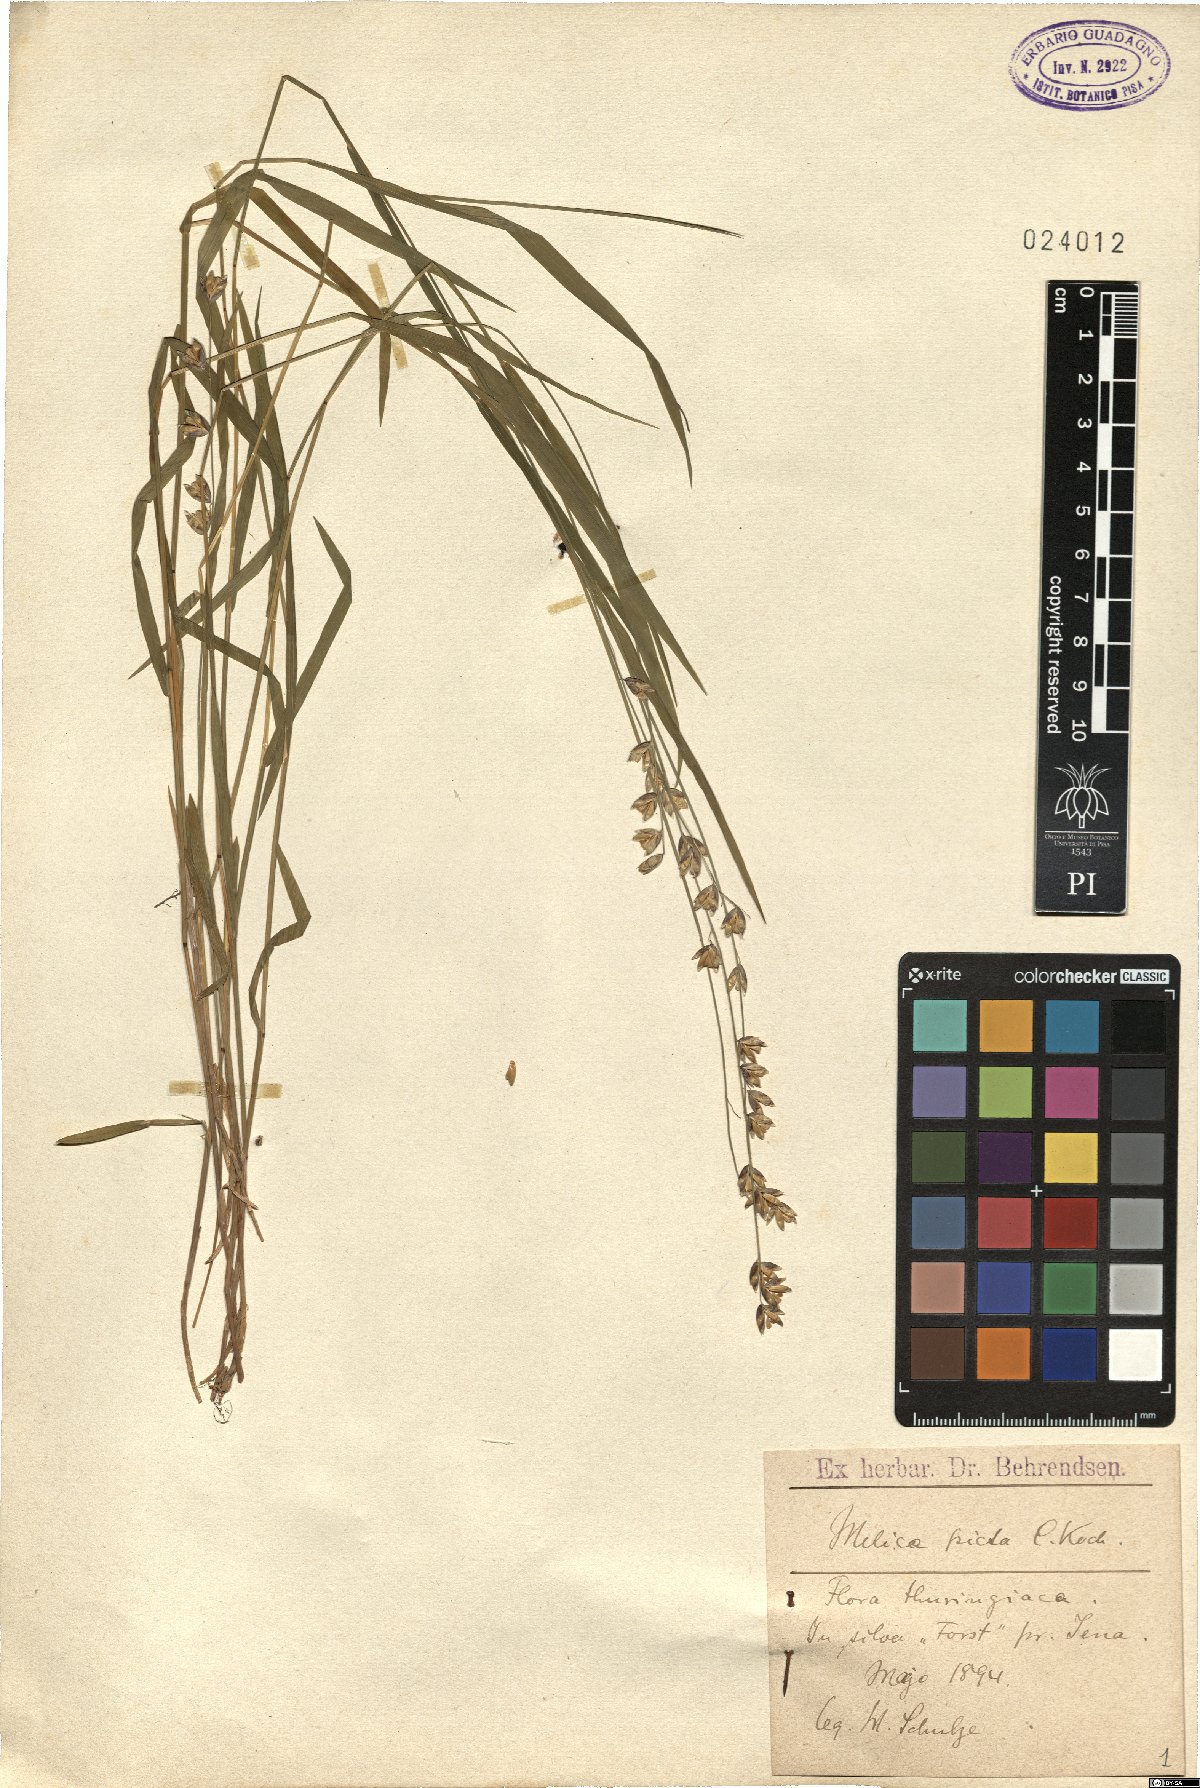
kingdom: Plantae
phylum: Tracheophyta
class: Liliopsida
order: Poales
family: Poaceae
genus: Melica
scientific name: Melica picta
